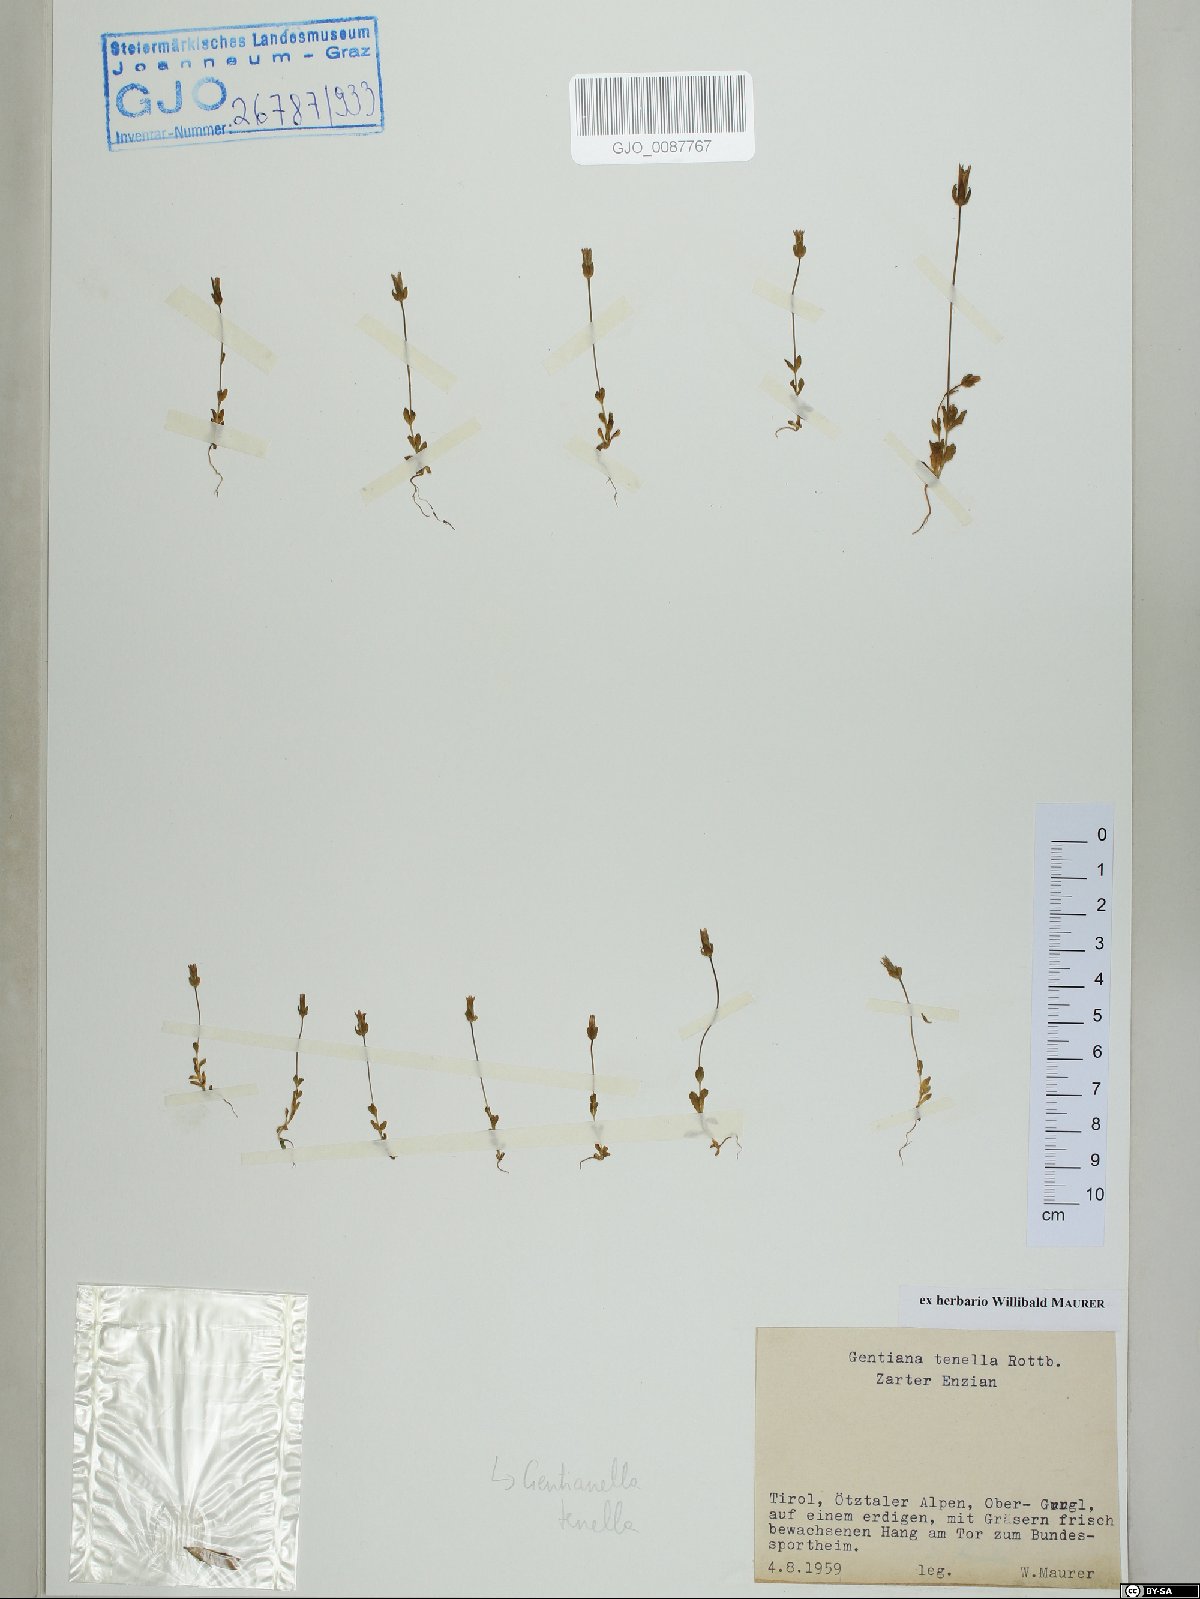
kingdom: Plantae
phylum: Tracheophyta
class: Magnoliopsida
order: Gentianales
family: Gentianaceae
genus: Comastoma
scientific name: Comastoma tenellum
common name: Dane's dwarf gentian
